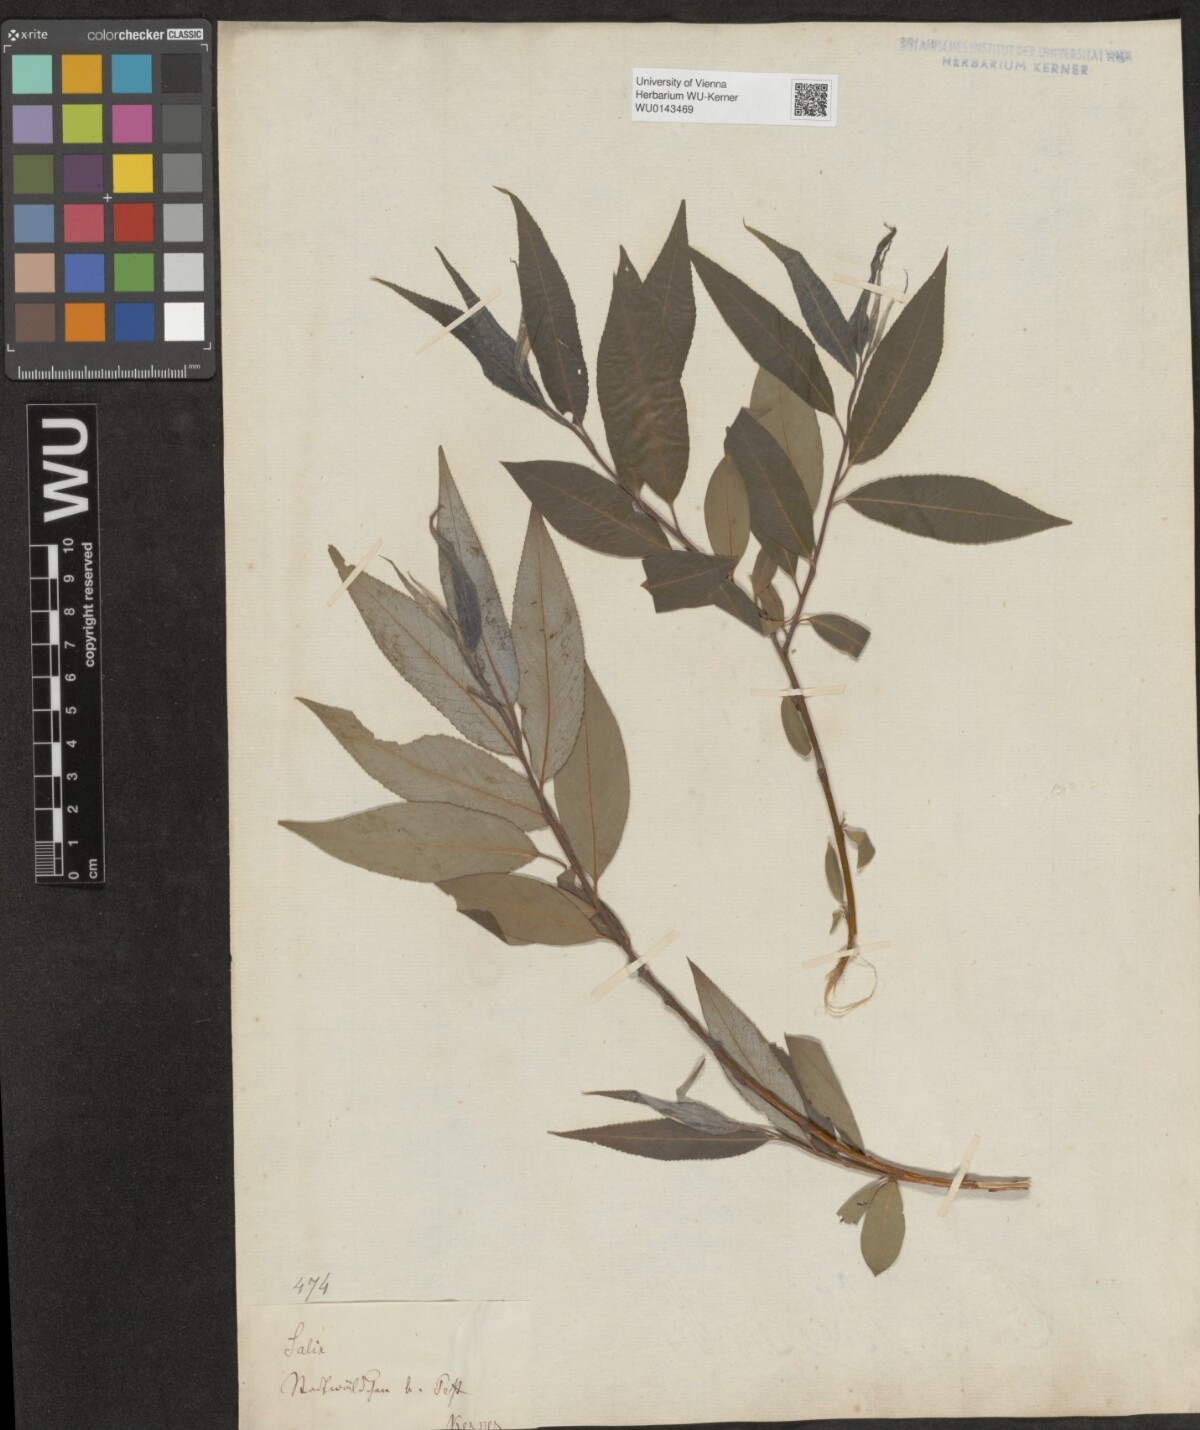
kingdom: Plantae
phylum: Tracheophyta
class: Magnoliopsida
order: Malpighiales
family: Salicaceae
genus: Salix
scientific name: Salix subtriandra
